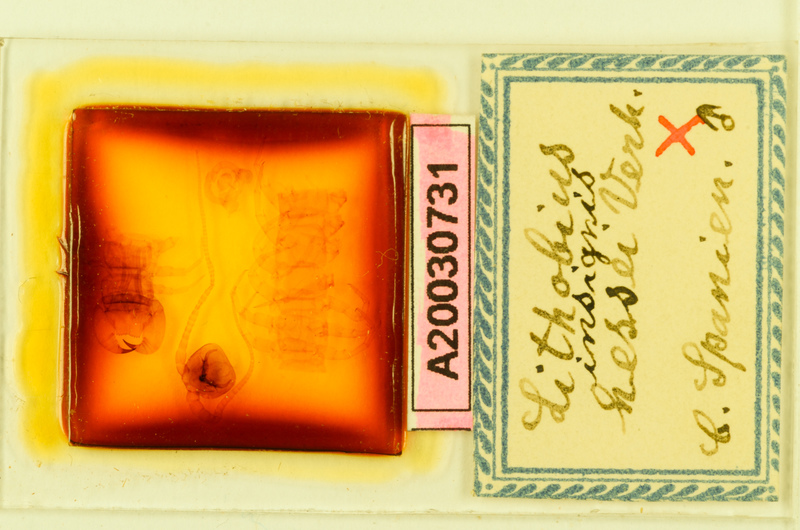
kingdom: Animalia
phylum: Arthropoda
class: Chilopoda
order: Lithobiomorpha
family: Lithobiidae
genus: Lithobius
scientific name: Lithobius variegatus
